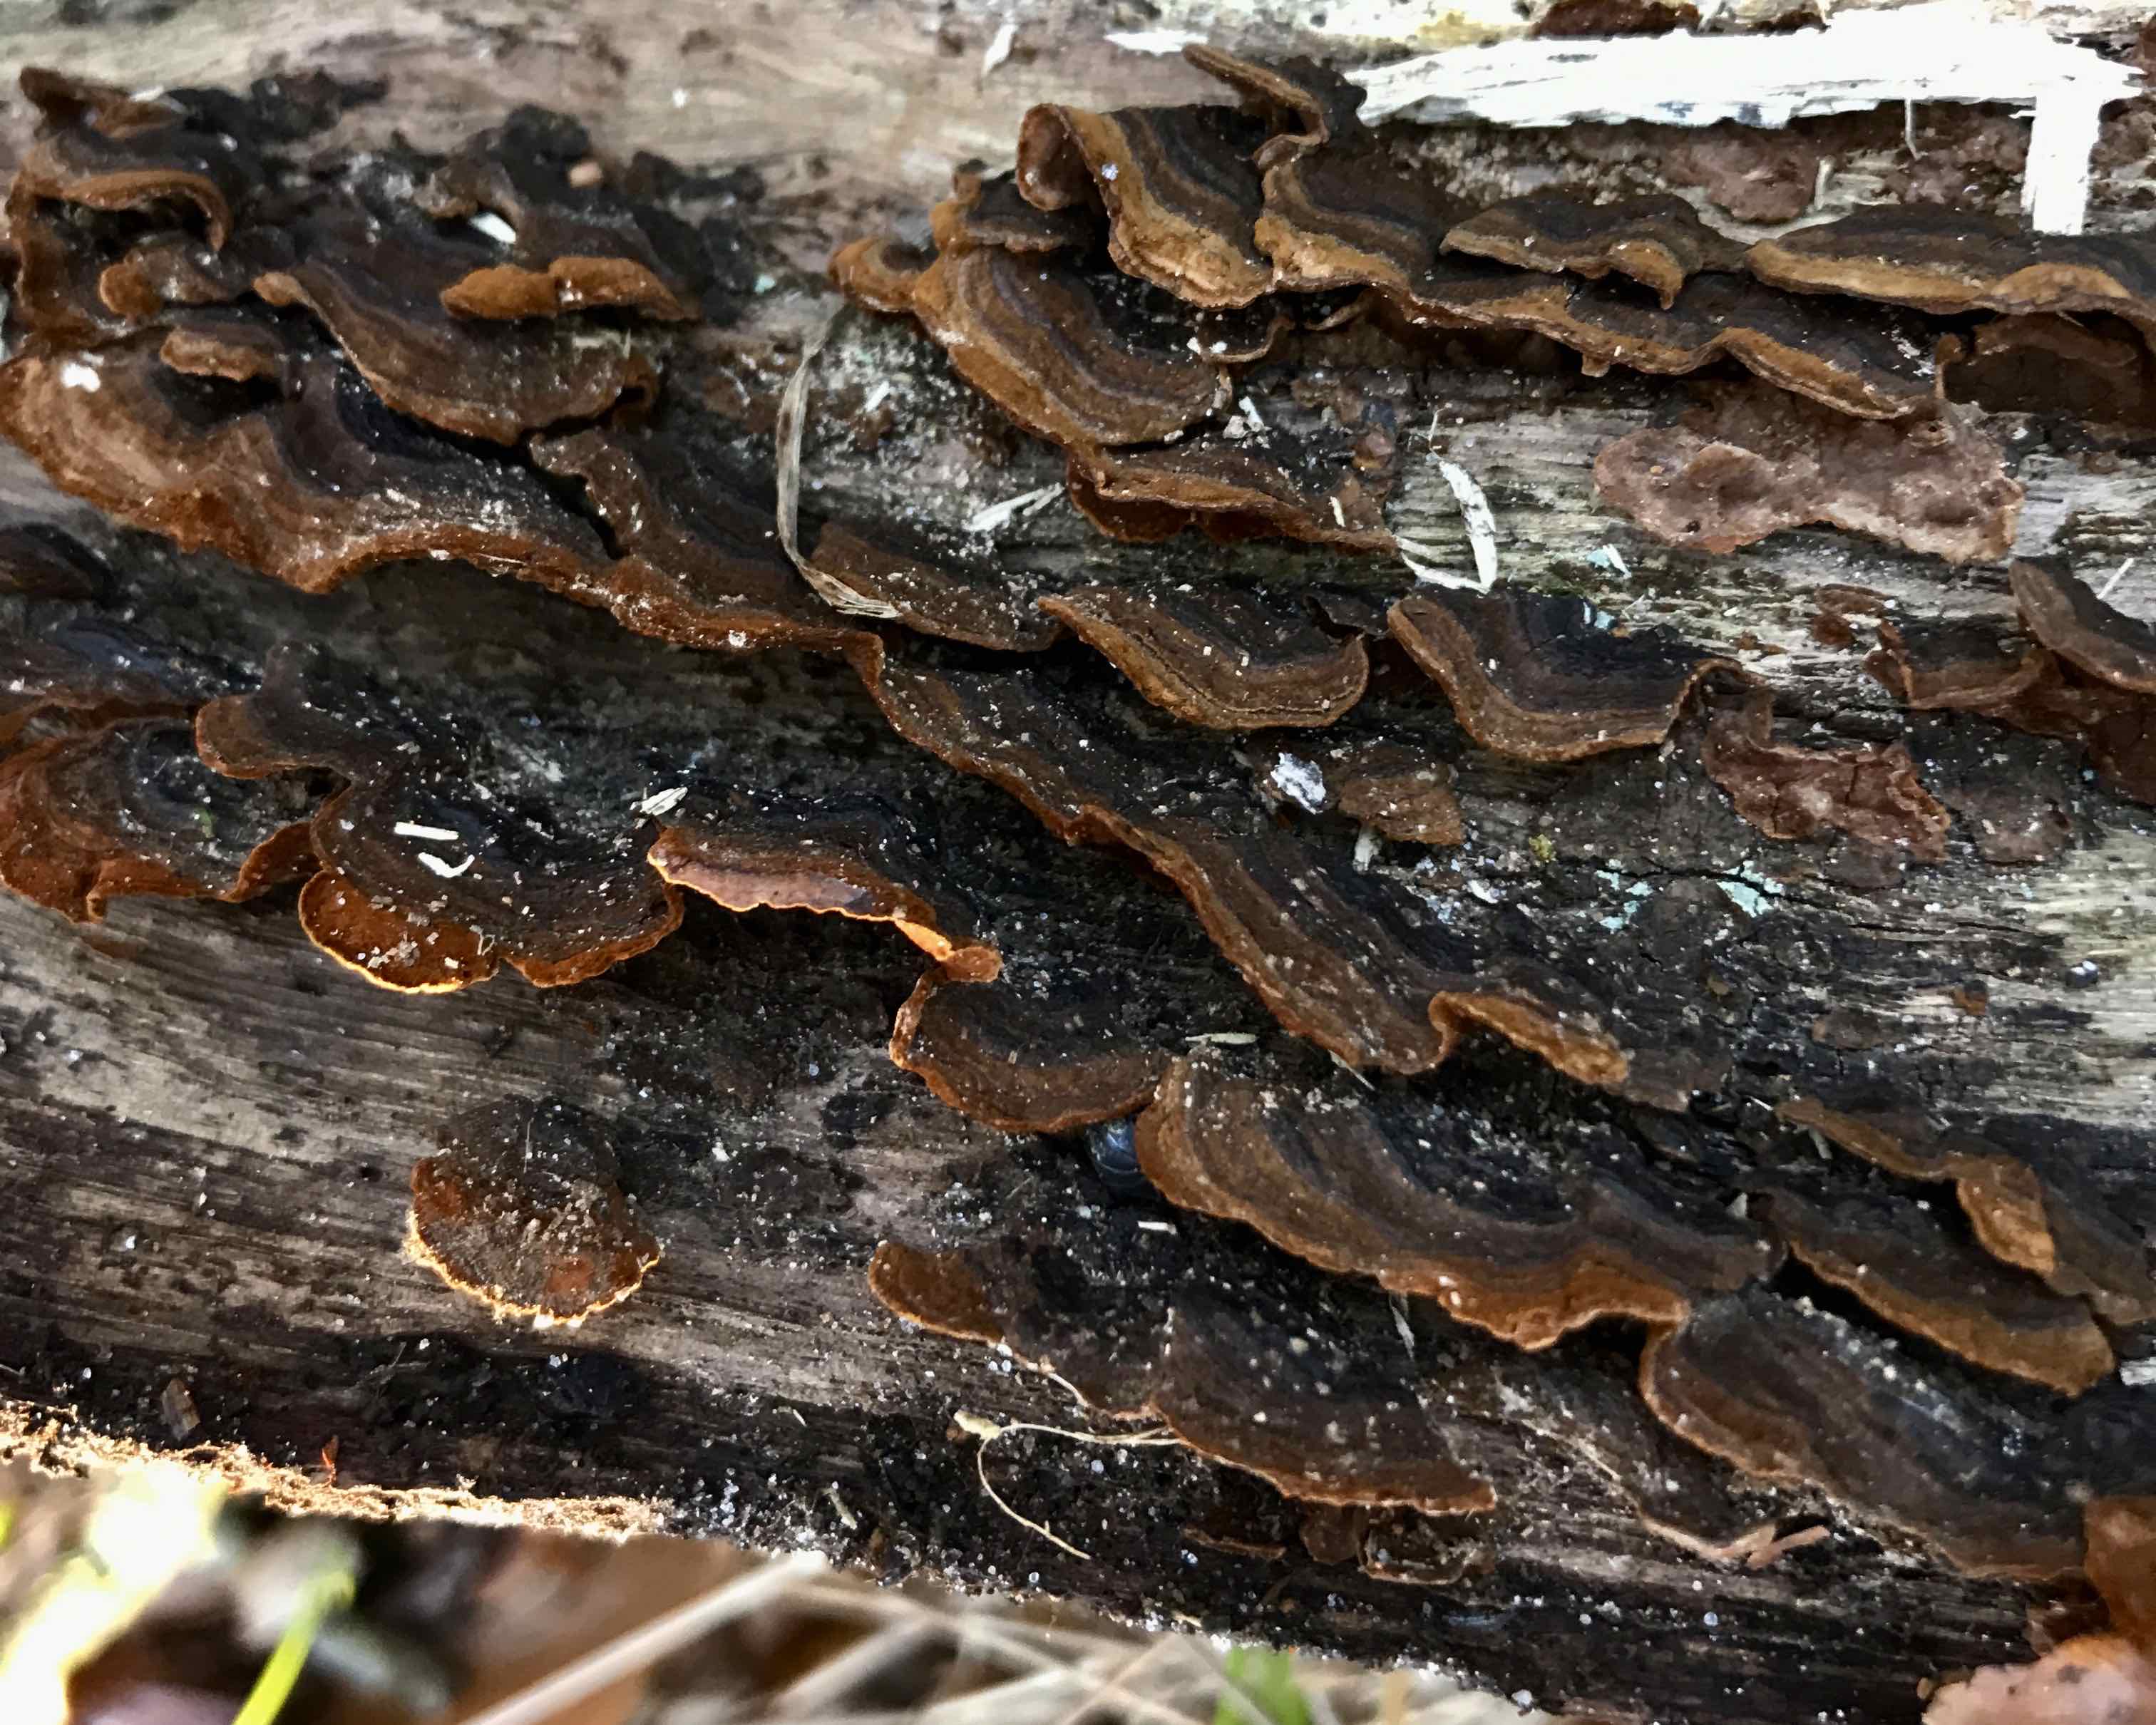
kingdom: Fungi
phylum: Basidiomycota
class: Agaricomycetes
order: Hymenochaetales
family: Hymenochaetaceae
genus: Hymenochaete
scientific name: Hymenochaete rubiginosa
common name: stiv ruslædersvamp
